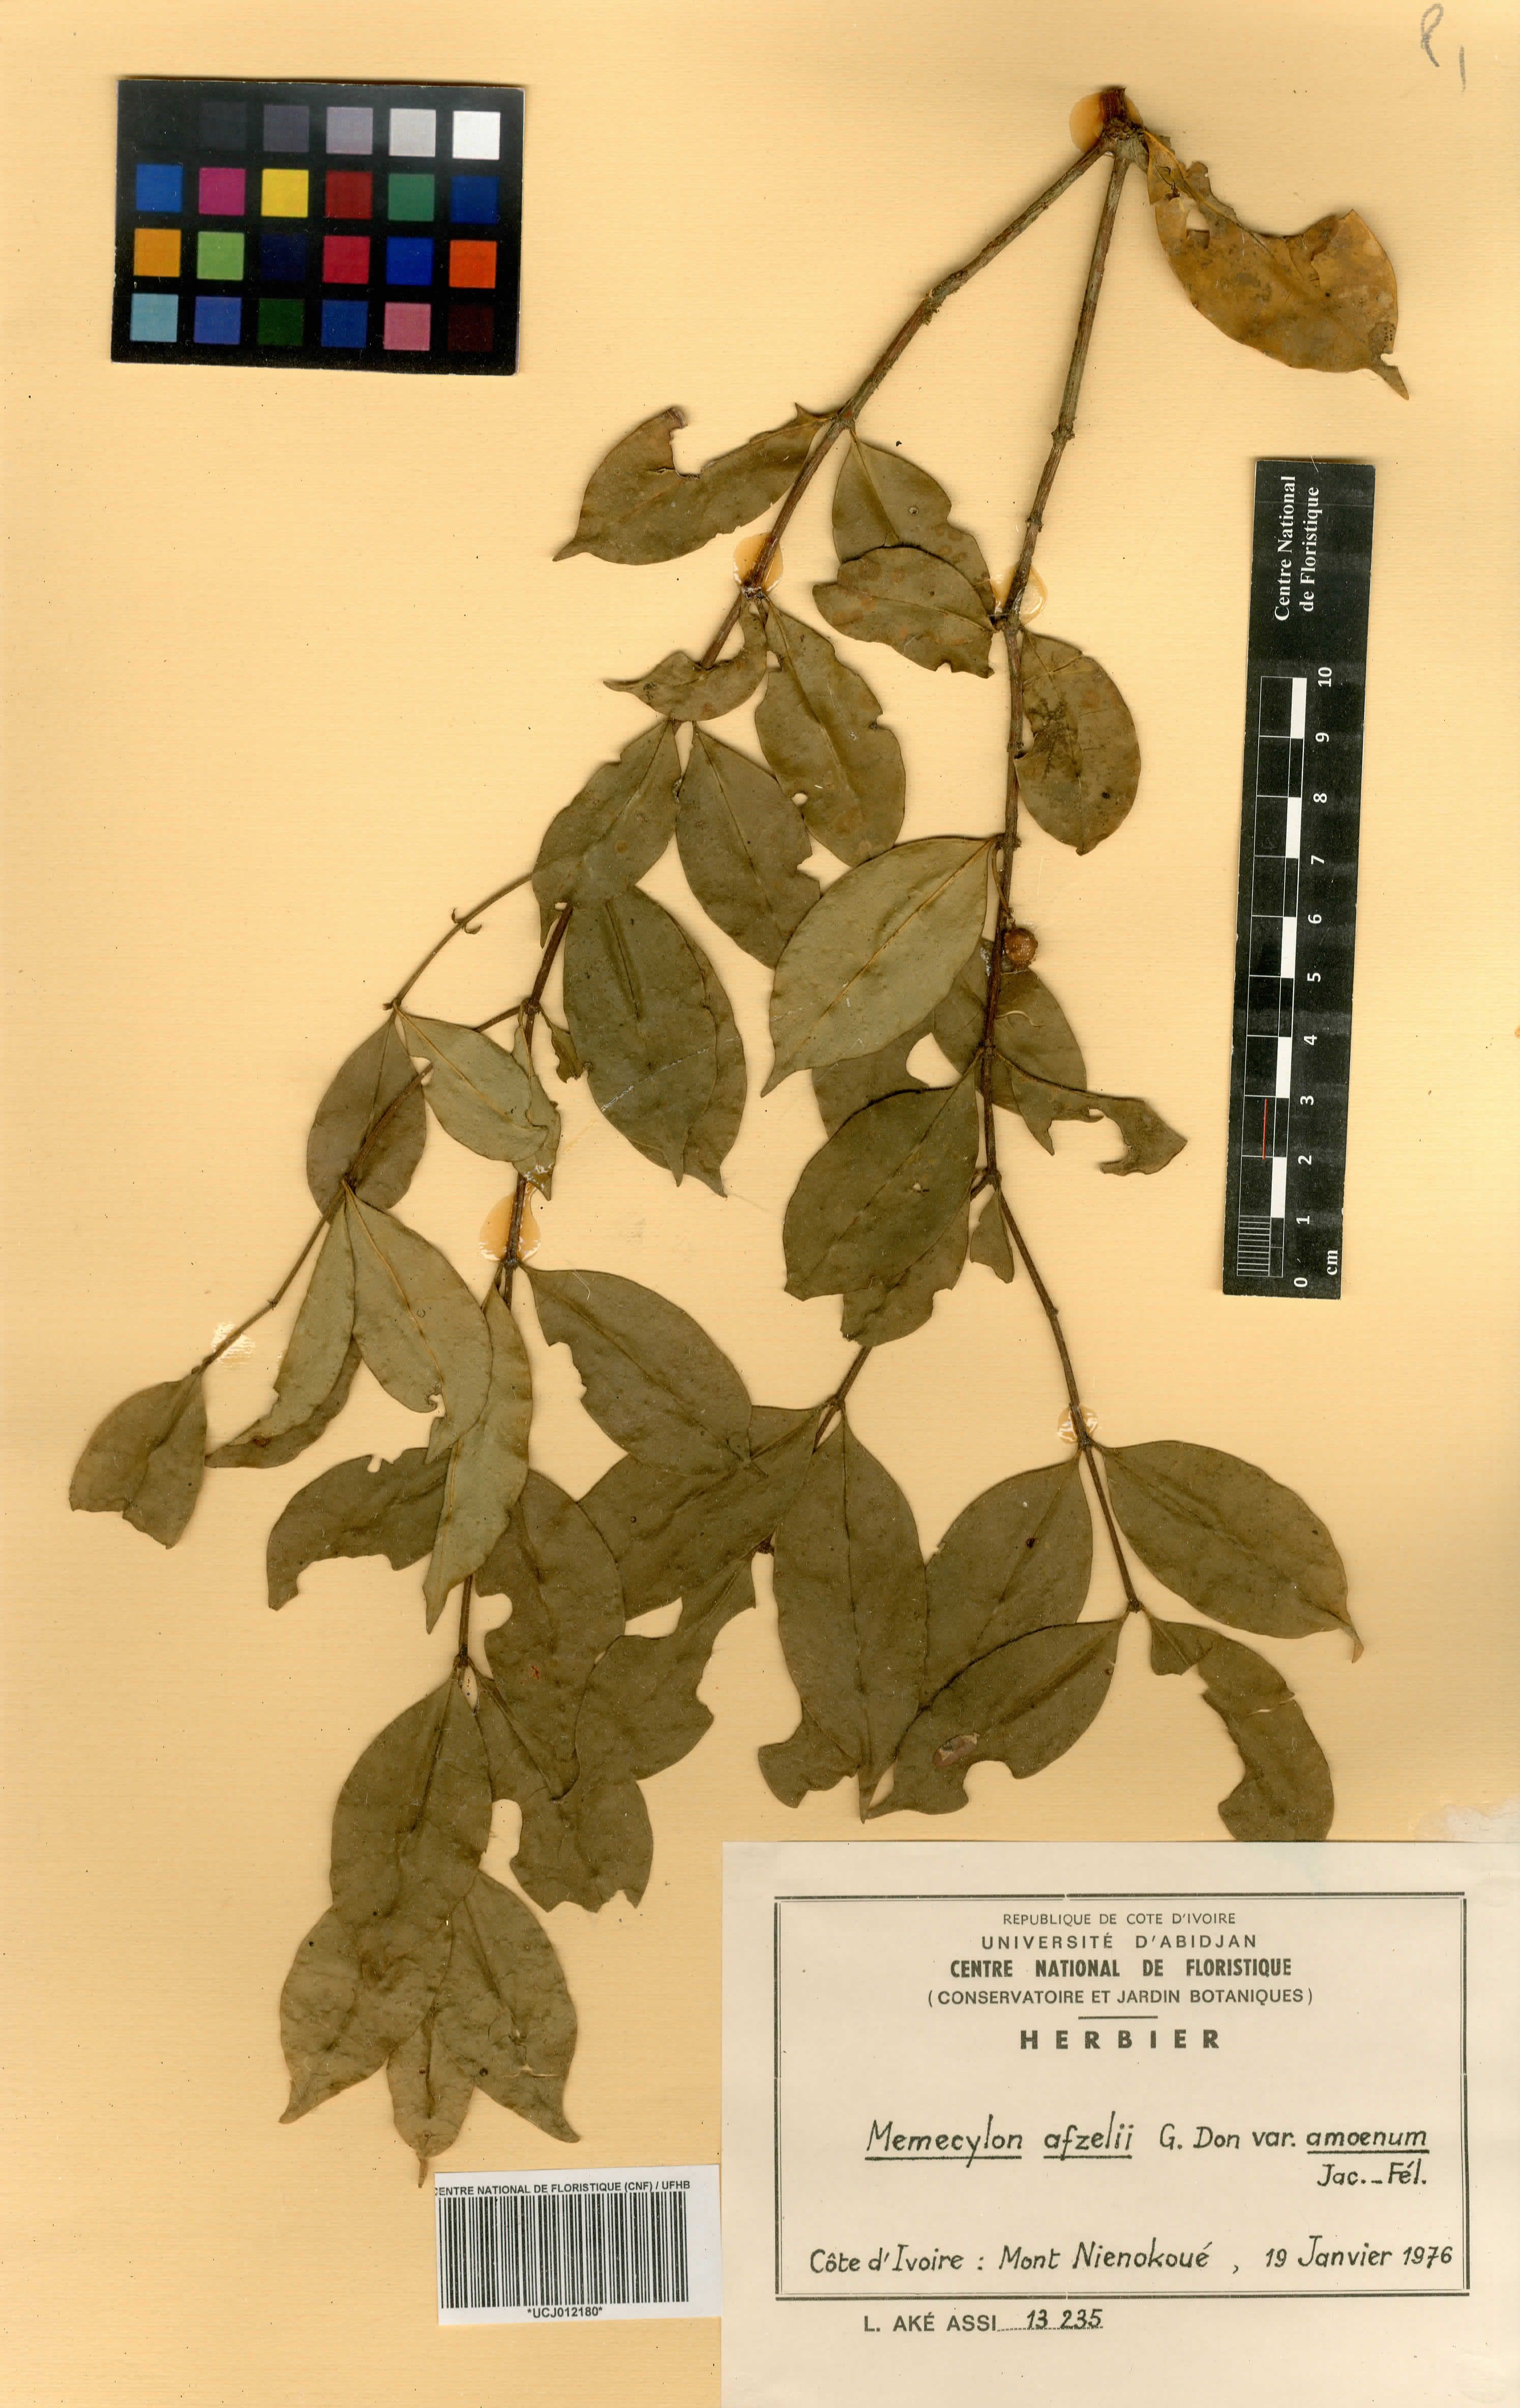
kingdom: Plantae
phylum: Tracheophyta
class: Magnoliopsida
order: Myrtales
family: Melastomataceae
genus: Memecylon
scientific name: Memecylon accedens
